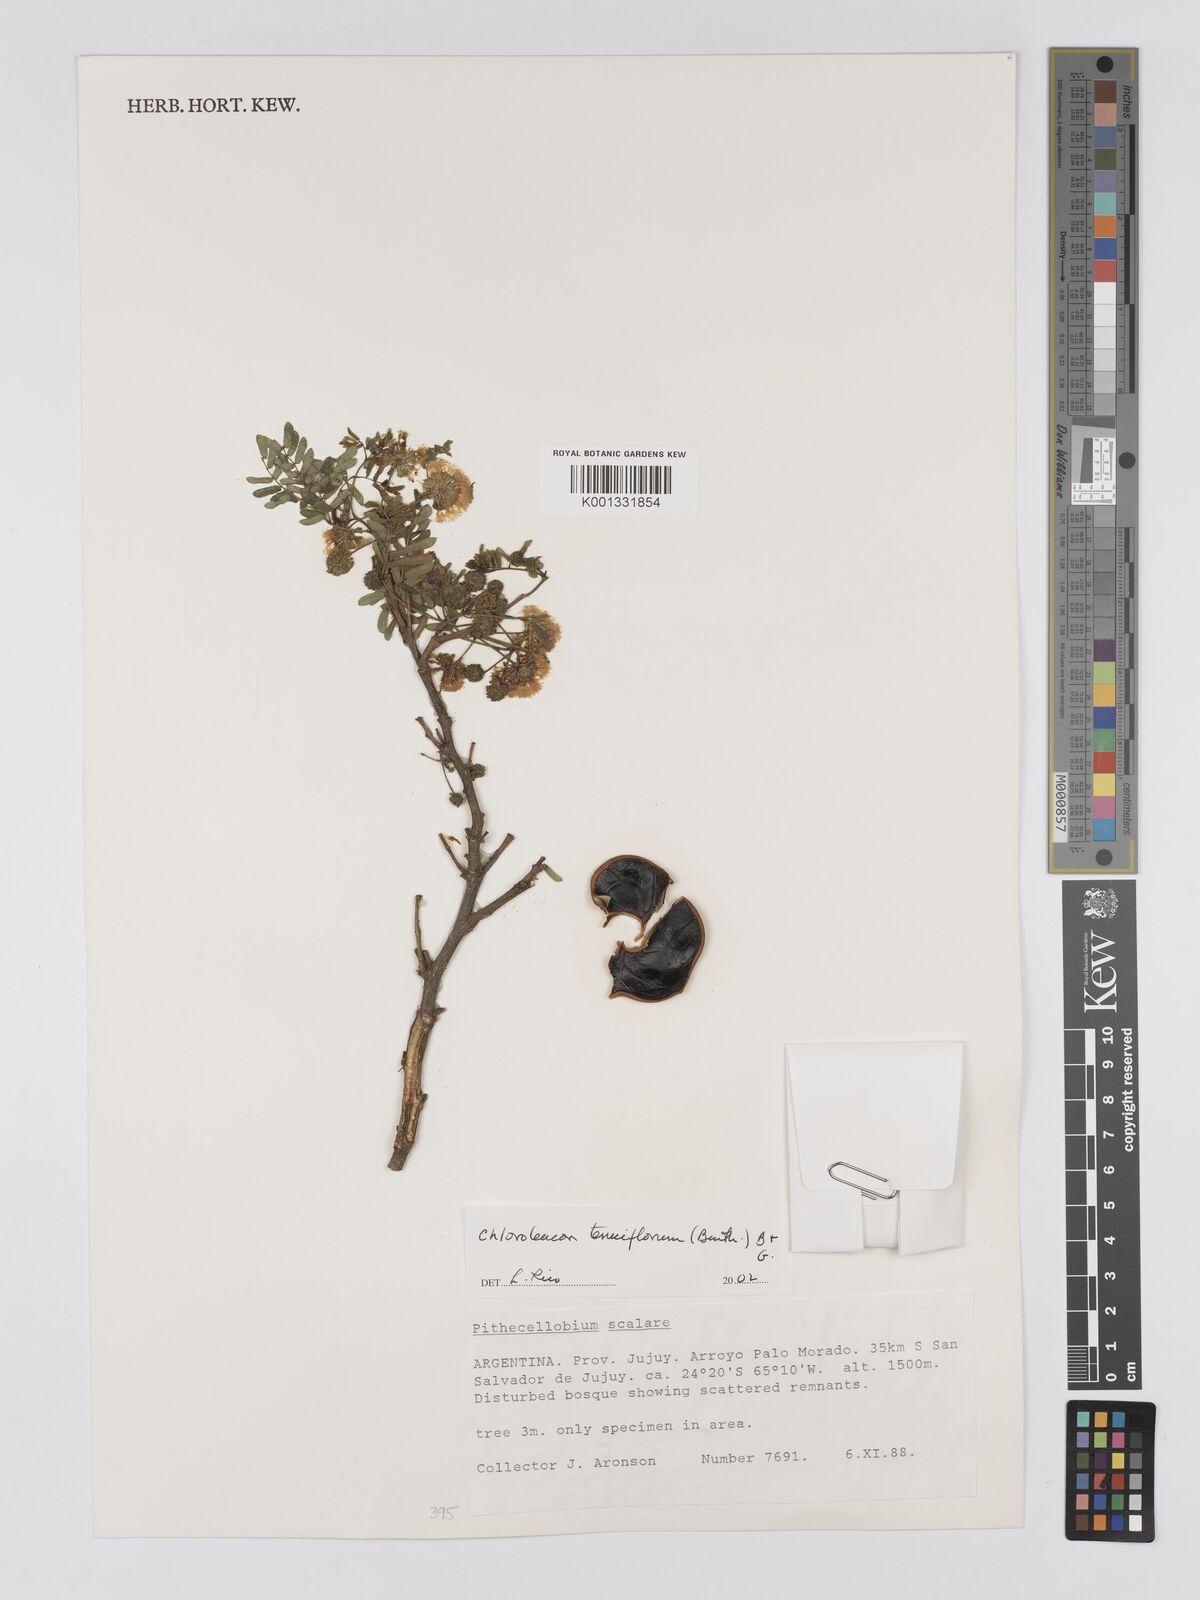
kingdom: Plantae
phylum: Tracheophyta
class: Magnoliopsida
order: Fabales
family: Fabaceae
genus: Chloroleucon
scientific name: Chloroleucon tenuiflorum
